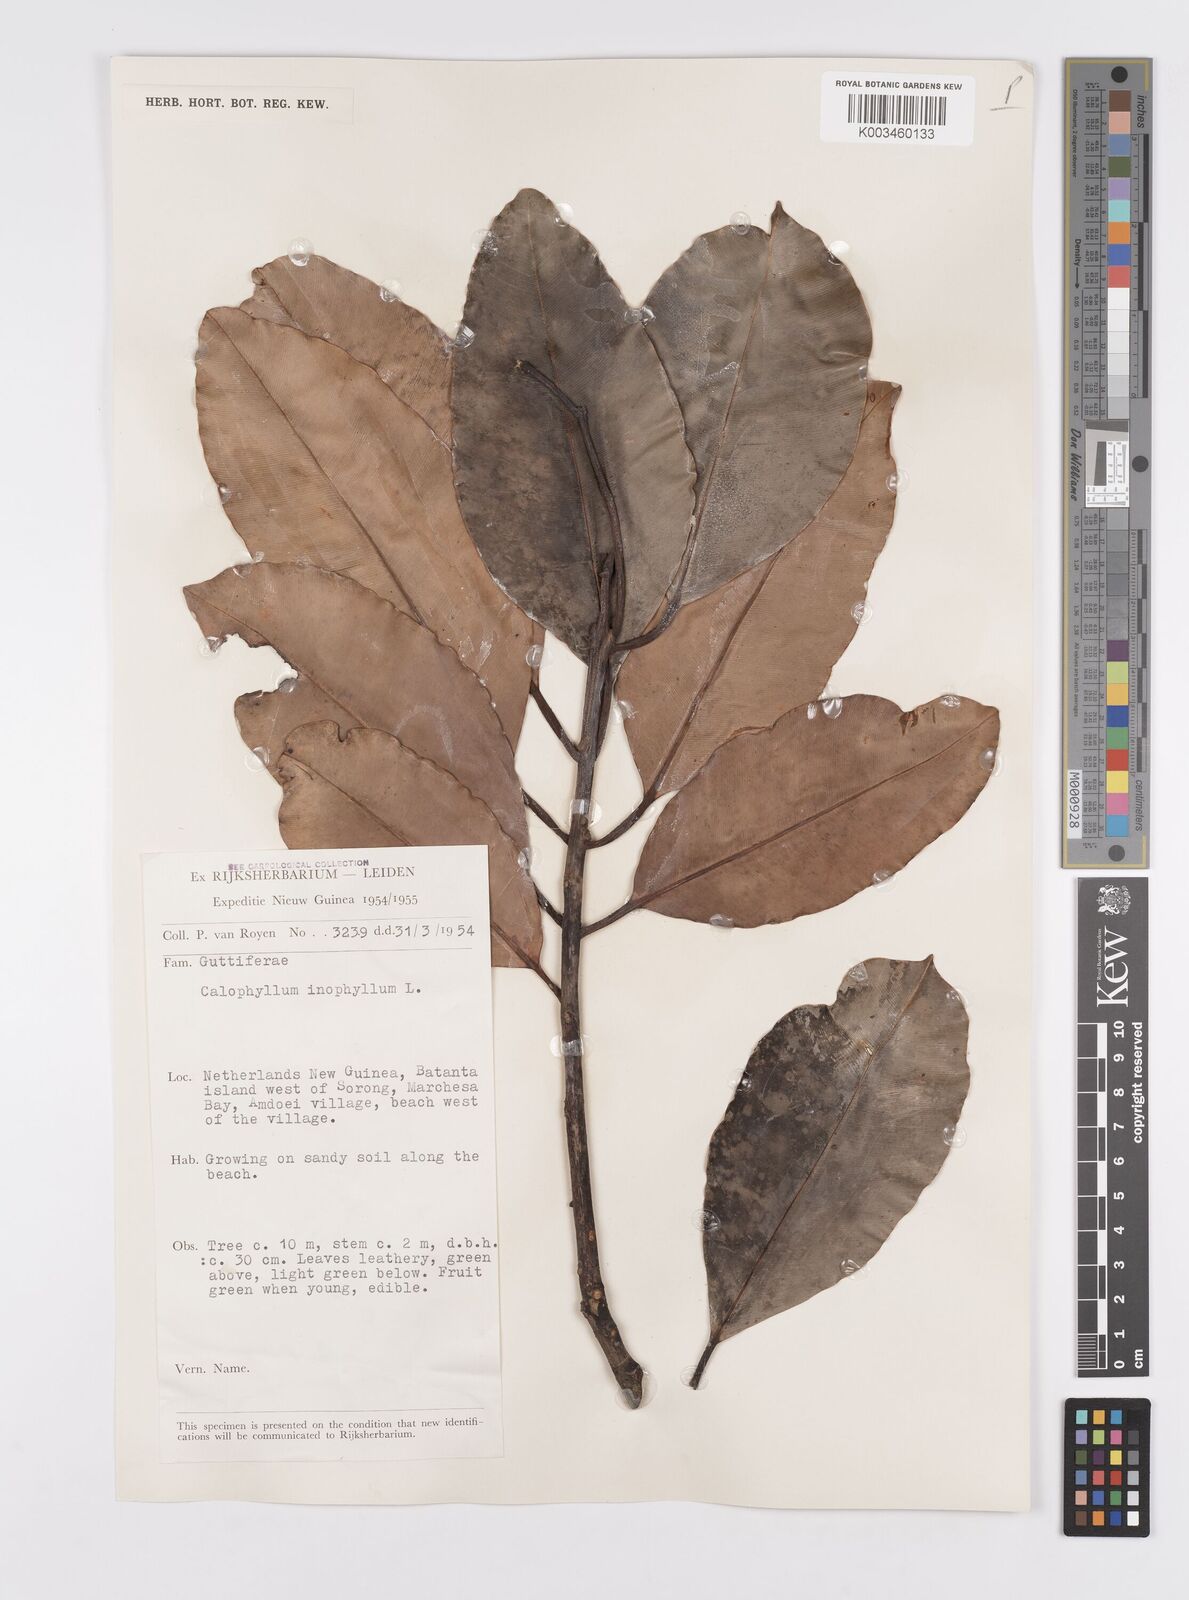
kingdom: Plantae
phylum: Tracheophyta
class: Magnoliopsida
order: Malpighiales
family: Calophyllaceae
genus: Calophyllum
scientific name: Calophyllum inophyllum
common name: Alexandrian laurel
